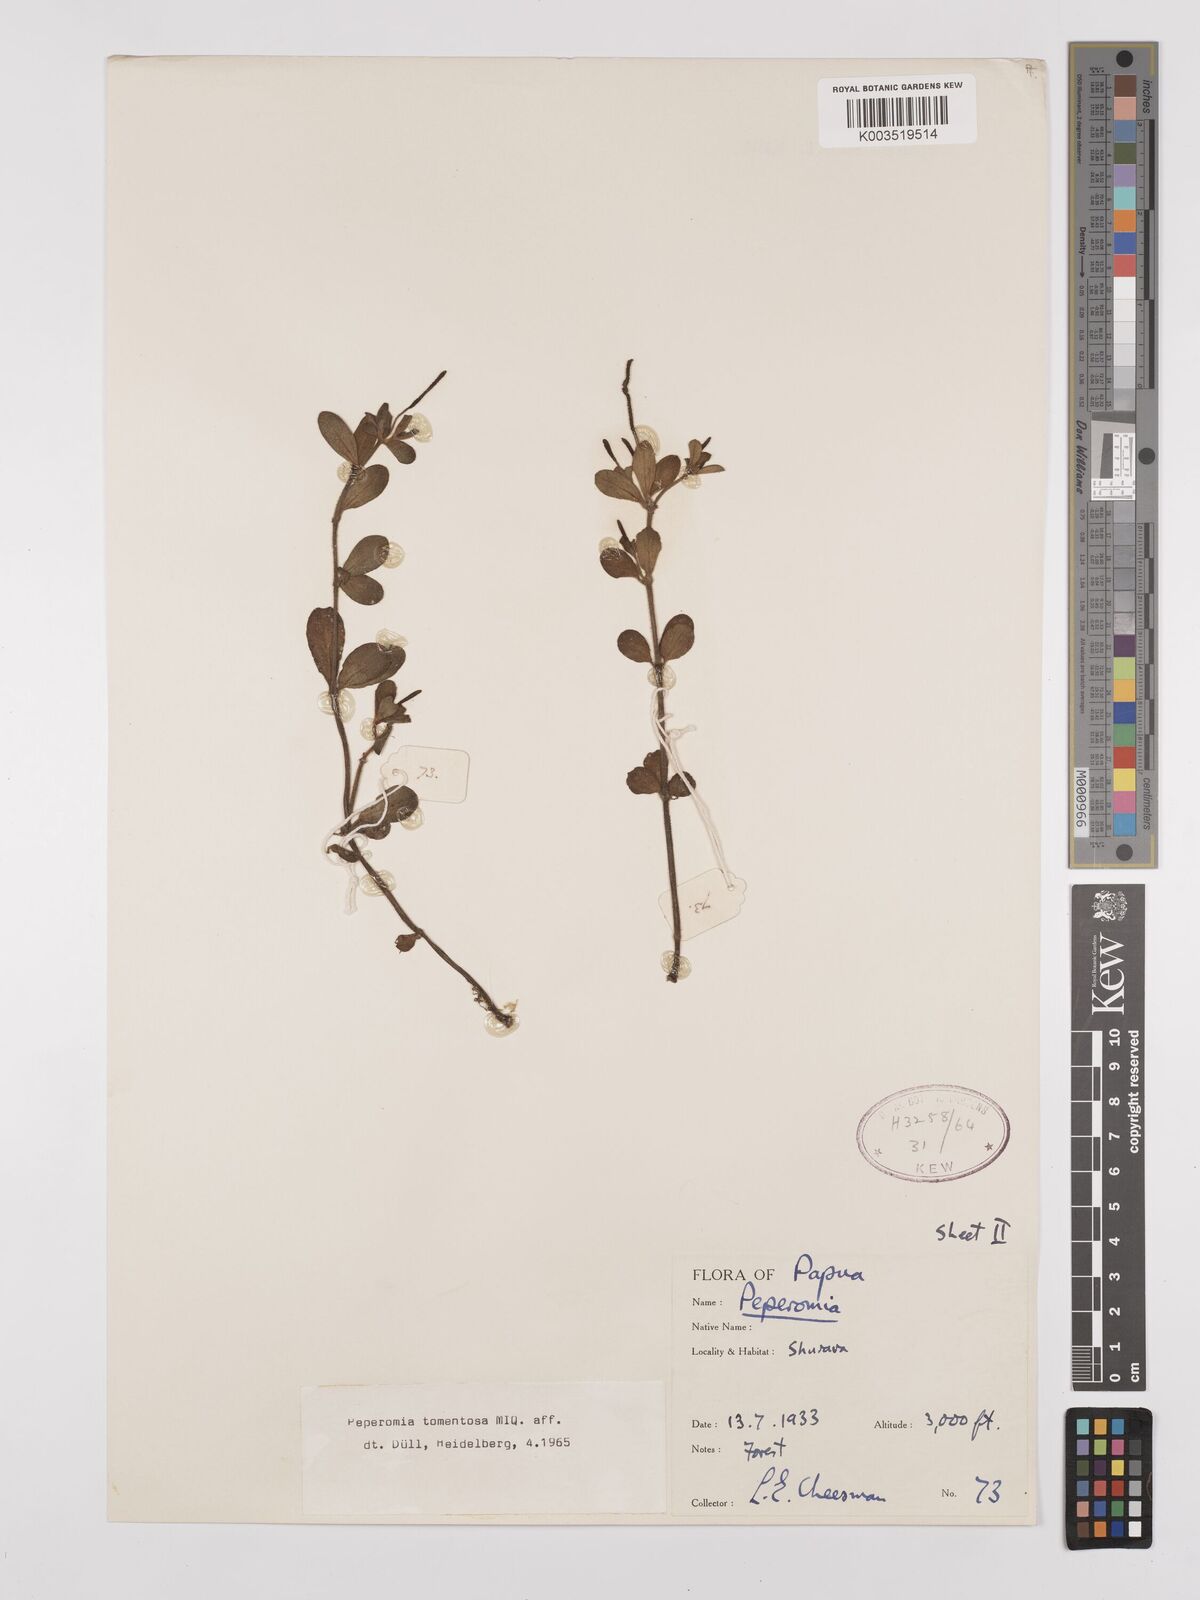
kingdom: Plantae
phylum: Tracheophyta
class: Magnoliopsida
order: Piperales
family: Piperaceae
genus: Peperomia
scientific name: Peperomia tomentosa
